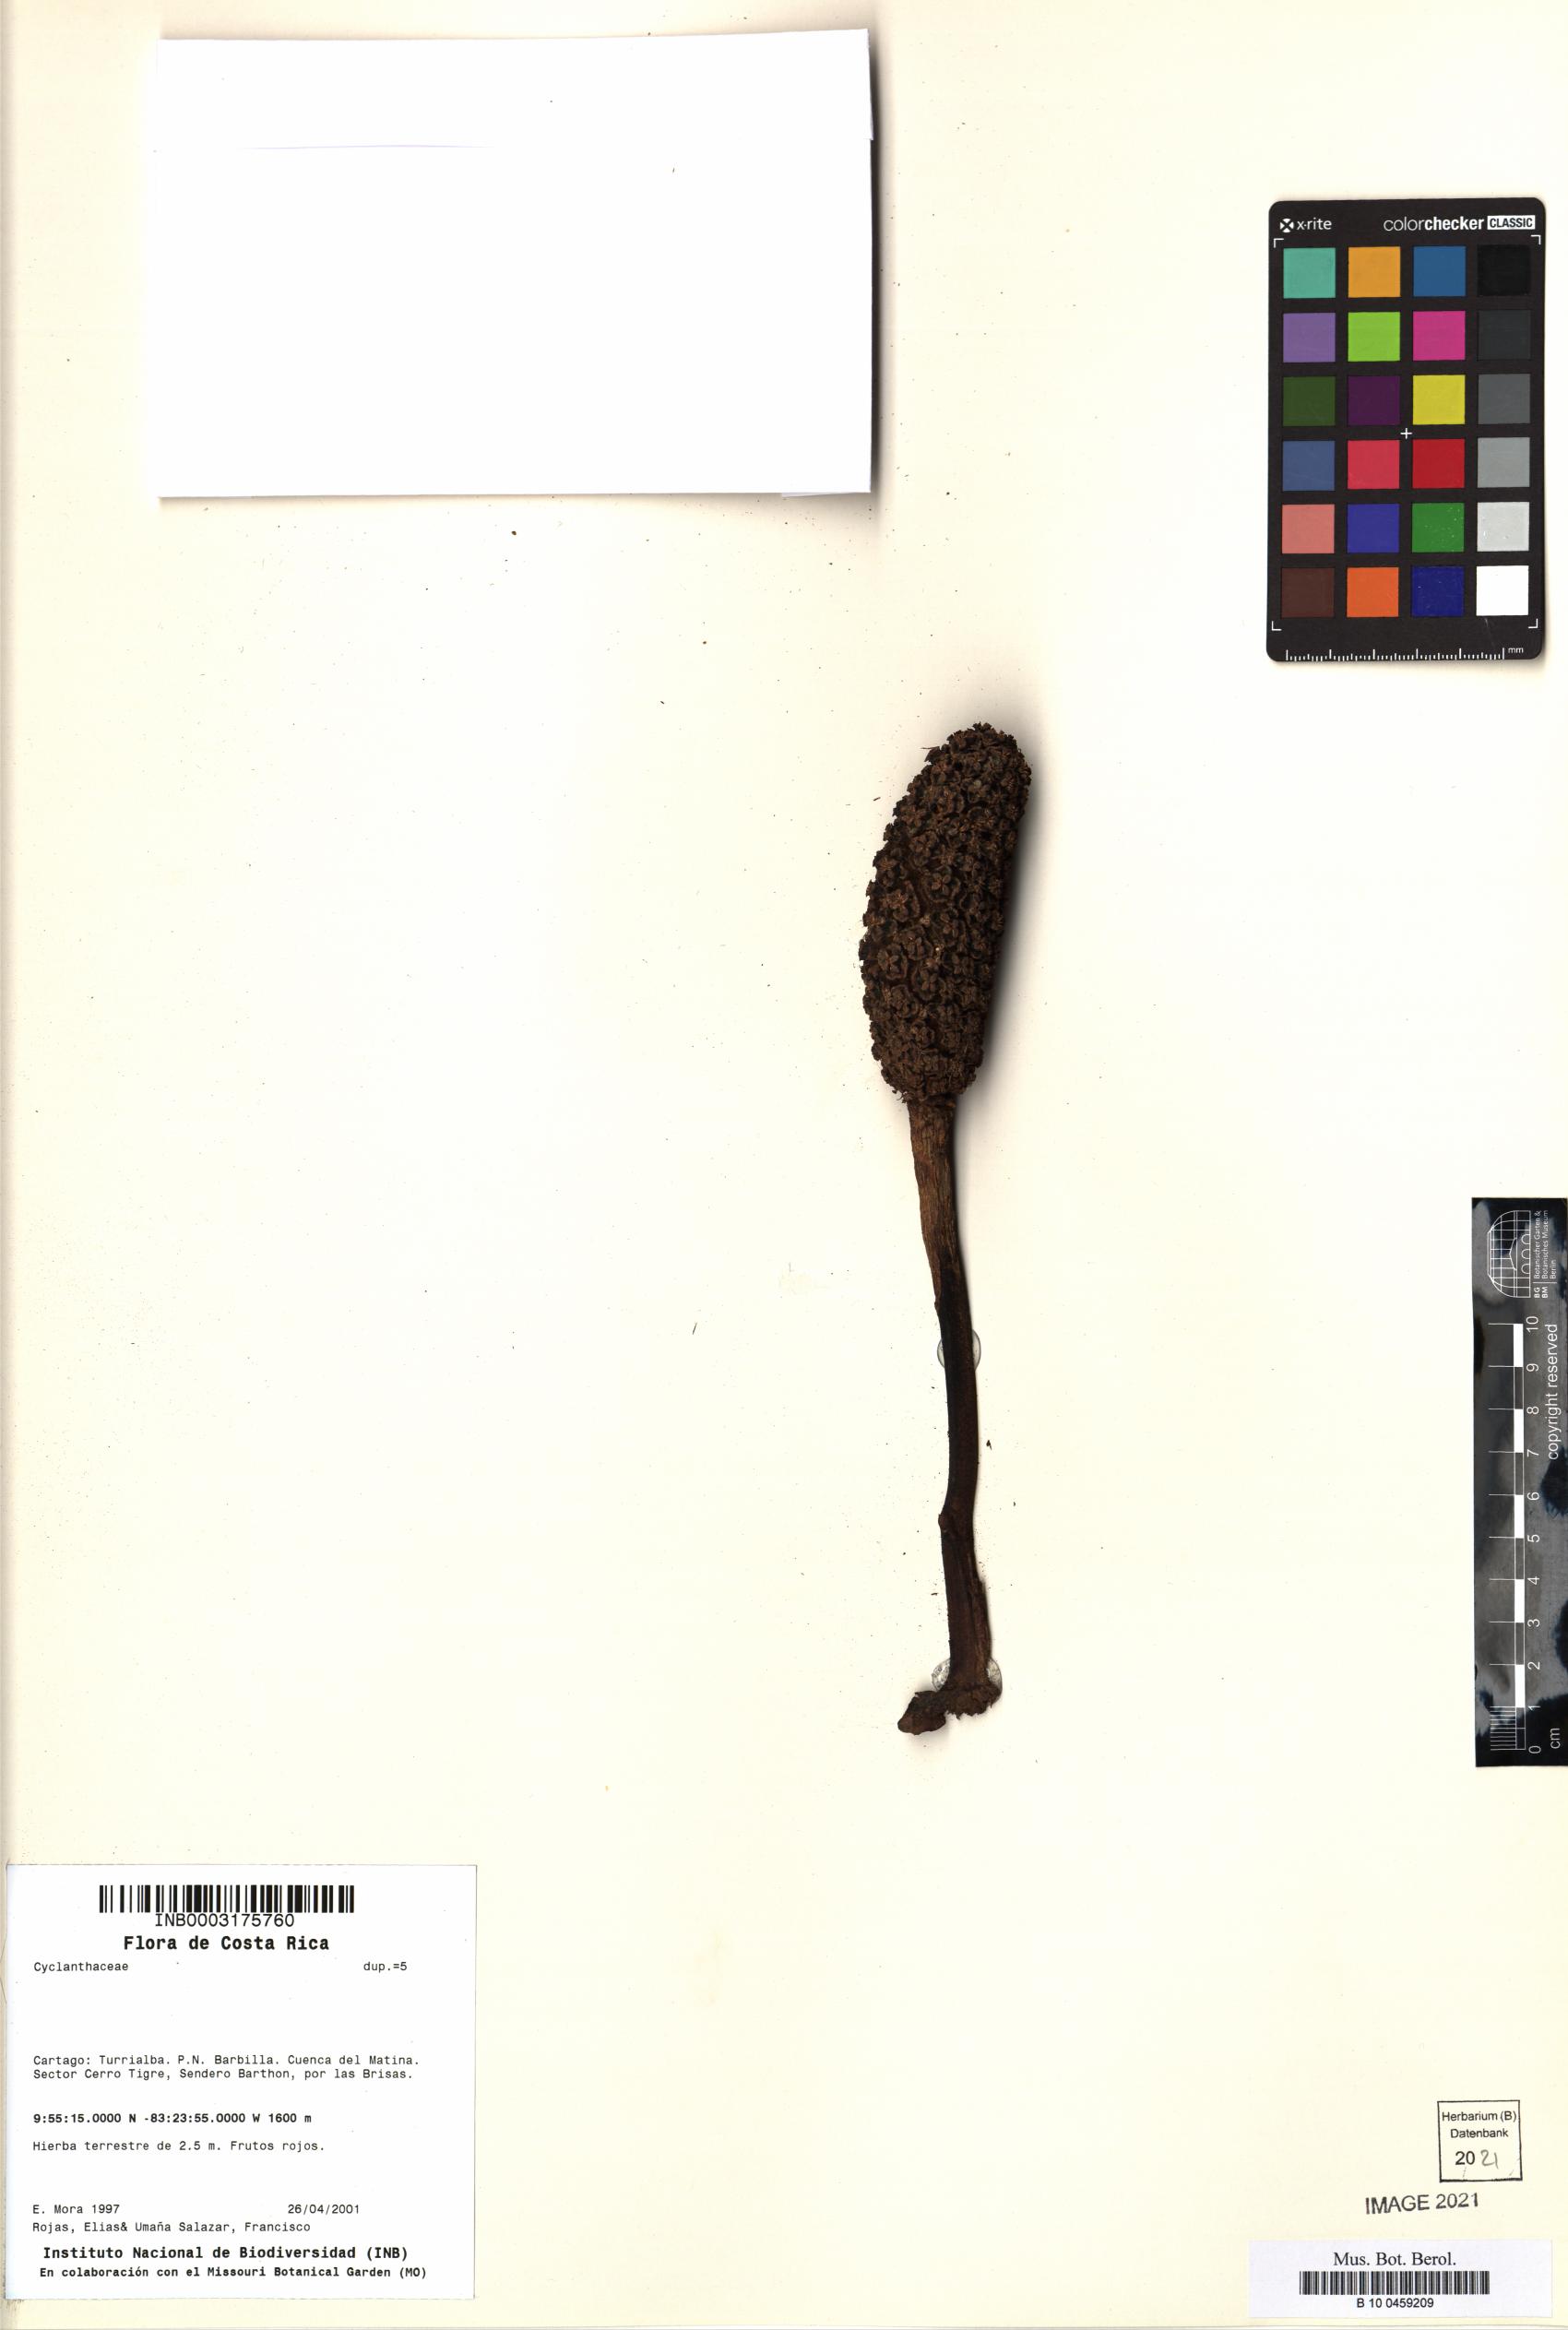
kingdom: Plantae
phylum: Tracheophyta
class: Liliopsida
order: Pandanales
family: Cyclanthaceae
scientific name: Cyclanthaceae
